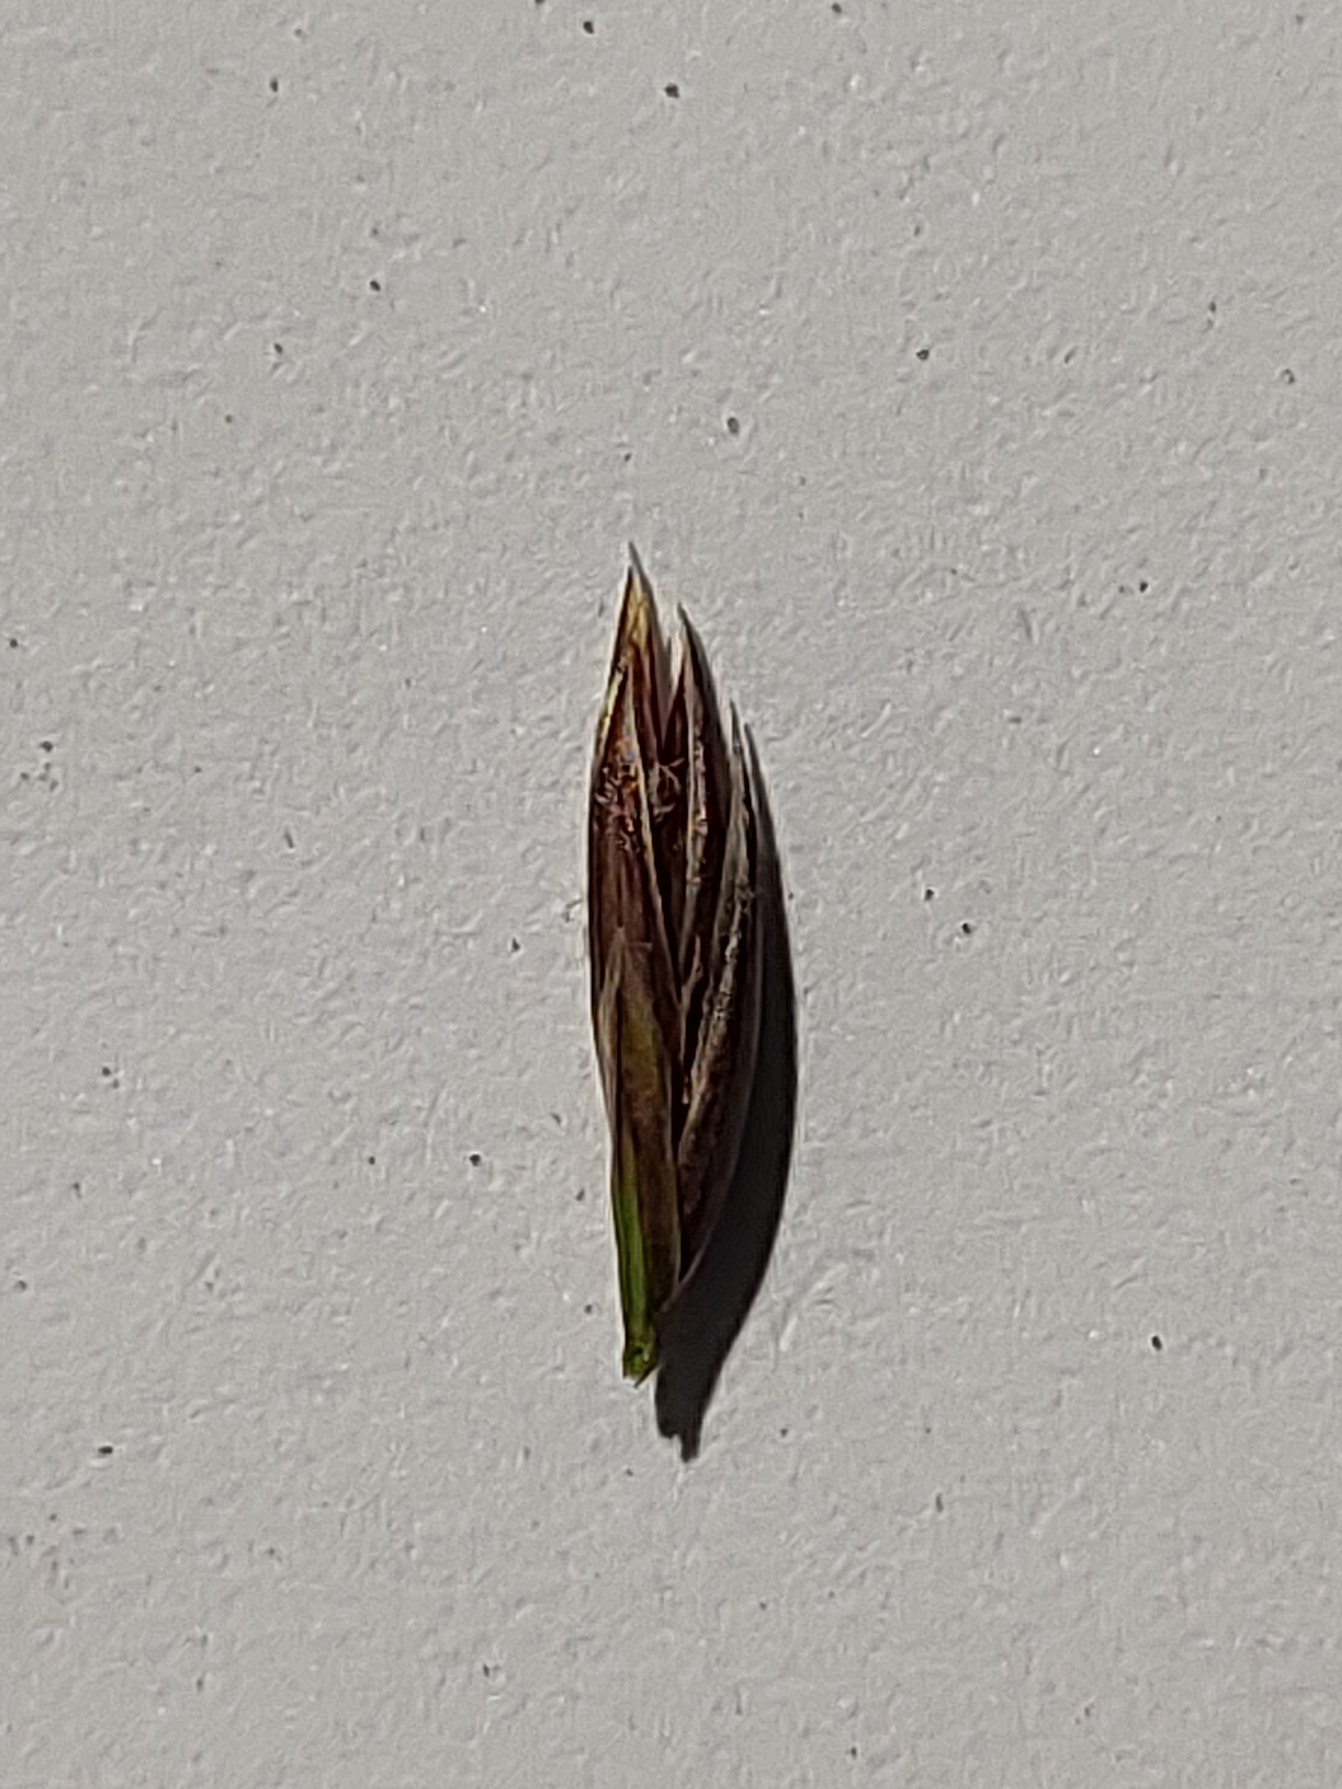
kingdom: Plantae
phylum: Tracheophyta
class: Liliopsida
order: Poales
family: Poaceae
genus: Lolium
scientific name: Lolium pratense
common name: Eng-svingel
